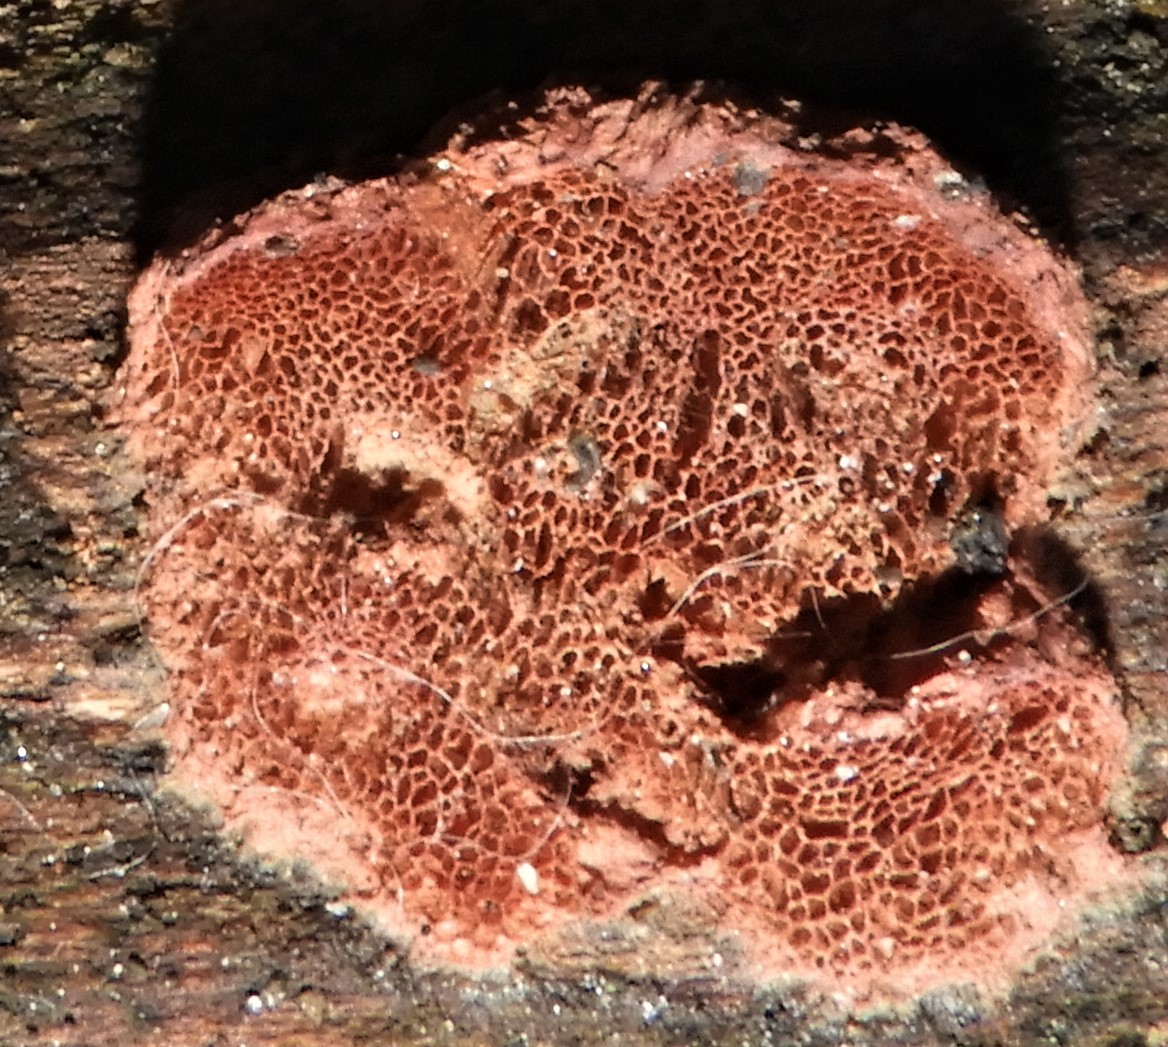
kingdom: Fungi
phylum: Basidiomycota
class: Agaricomycetes
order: Polyporales
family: Phanerochaetaceae
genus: Hapalopilus
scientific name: Hapalopilus rutilans
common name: rødlig okkerporesvamp
